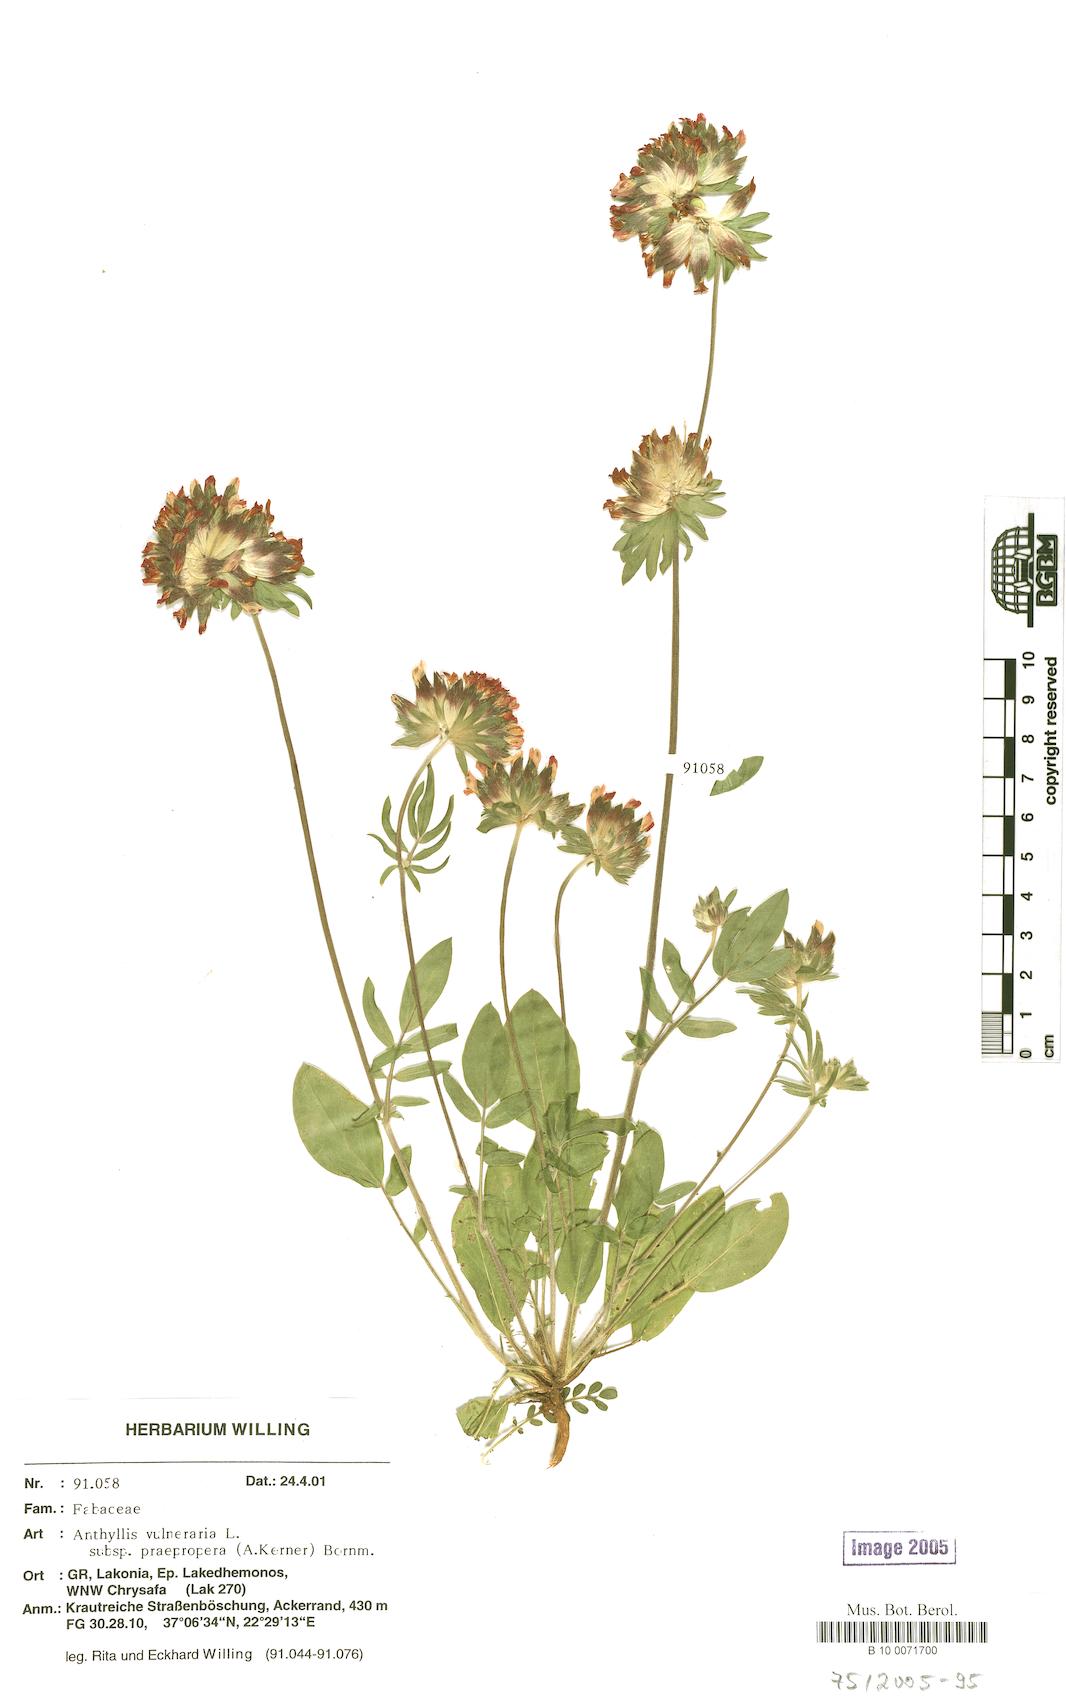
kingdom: Plantae
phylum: Tracheophyta
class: Magnoliopsida
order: Fabales
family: Fabaceae
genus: Anthyllis
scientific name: Anthyllis vulneraria
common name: Kidney vetch
